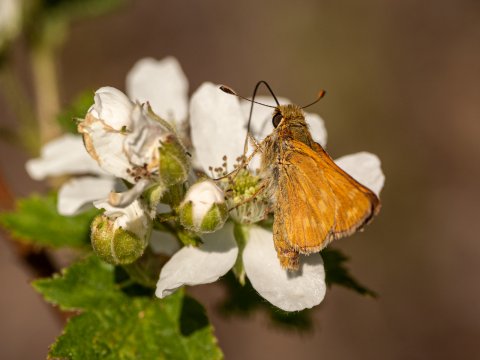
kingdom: Animalia
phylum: Arthropoda
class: Insecta
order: Lepidoptera
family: Hesperiidae
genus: Hesperia
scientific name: Hesperia sassacus
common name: Sassacus Skipper
